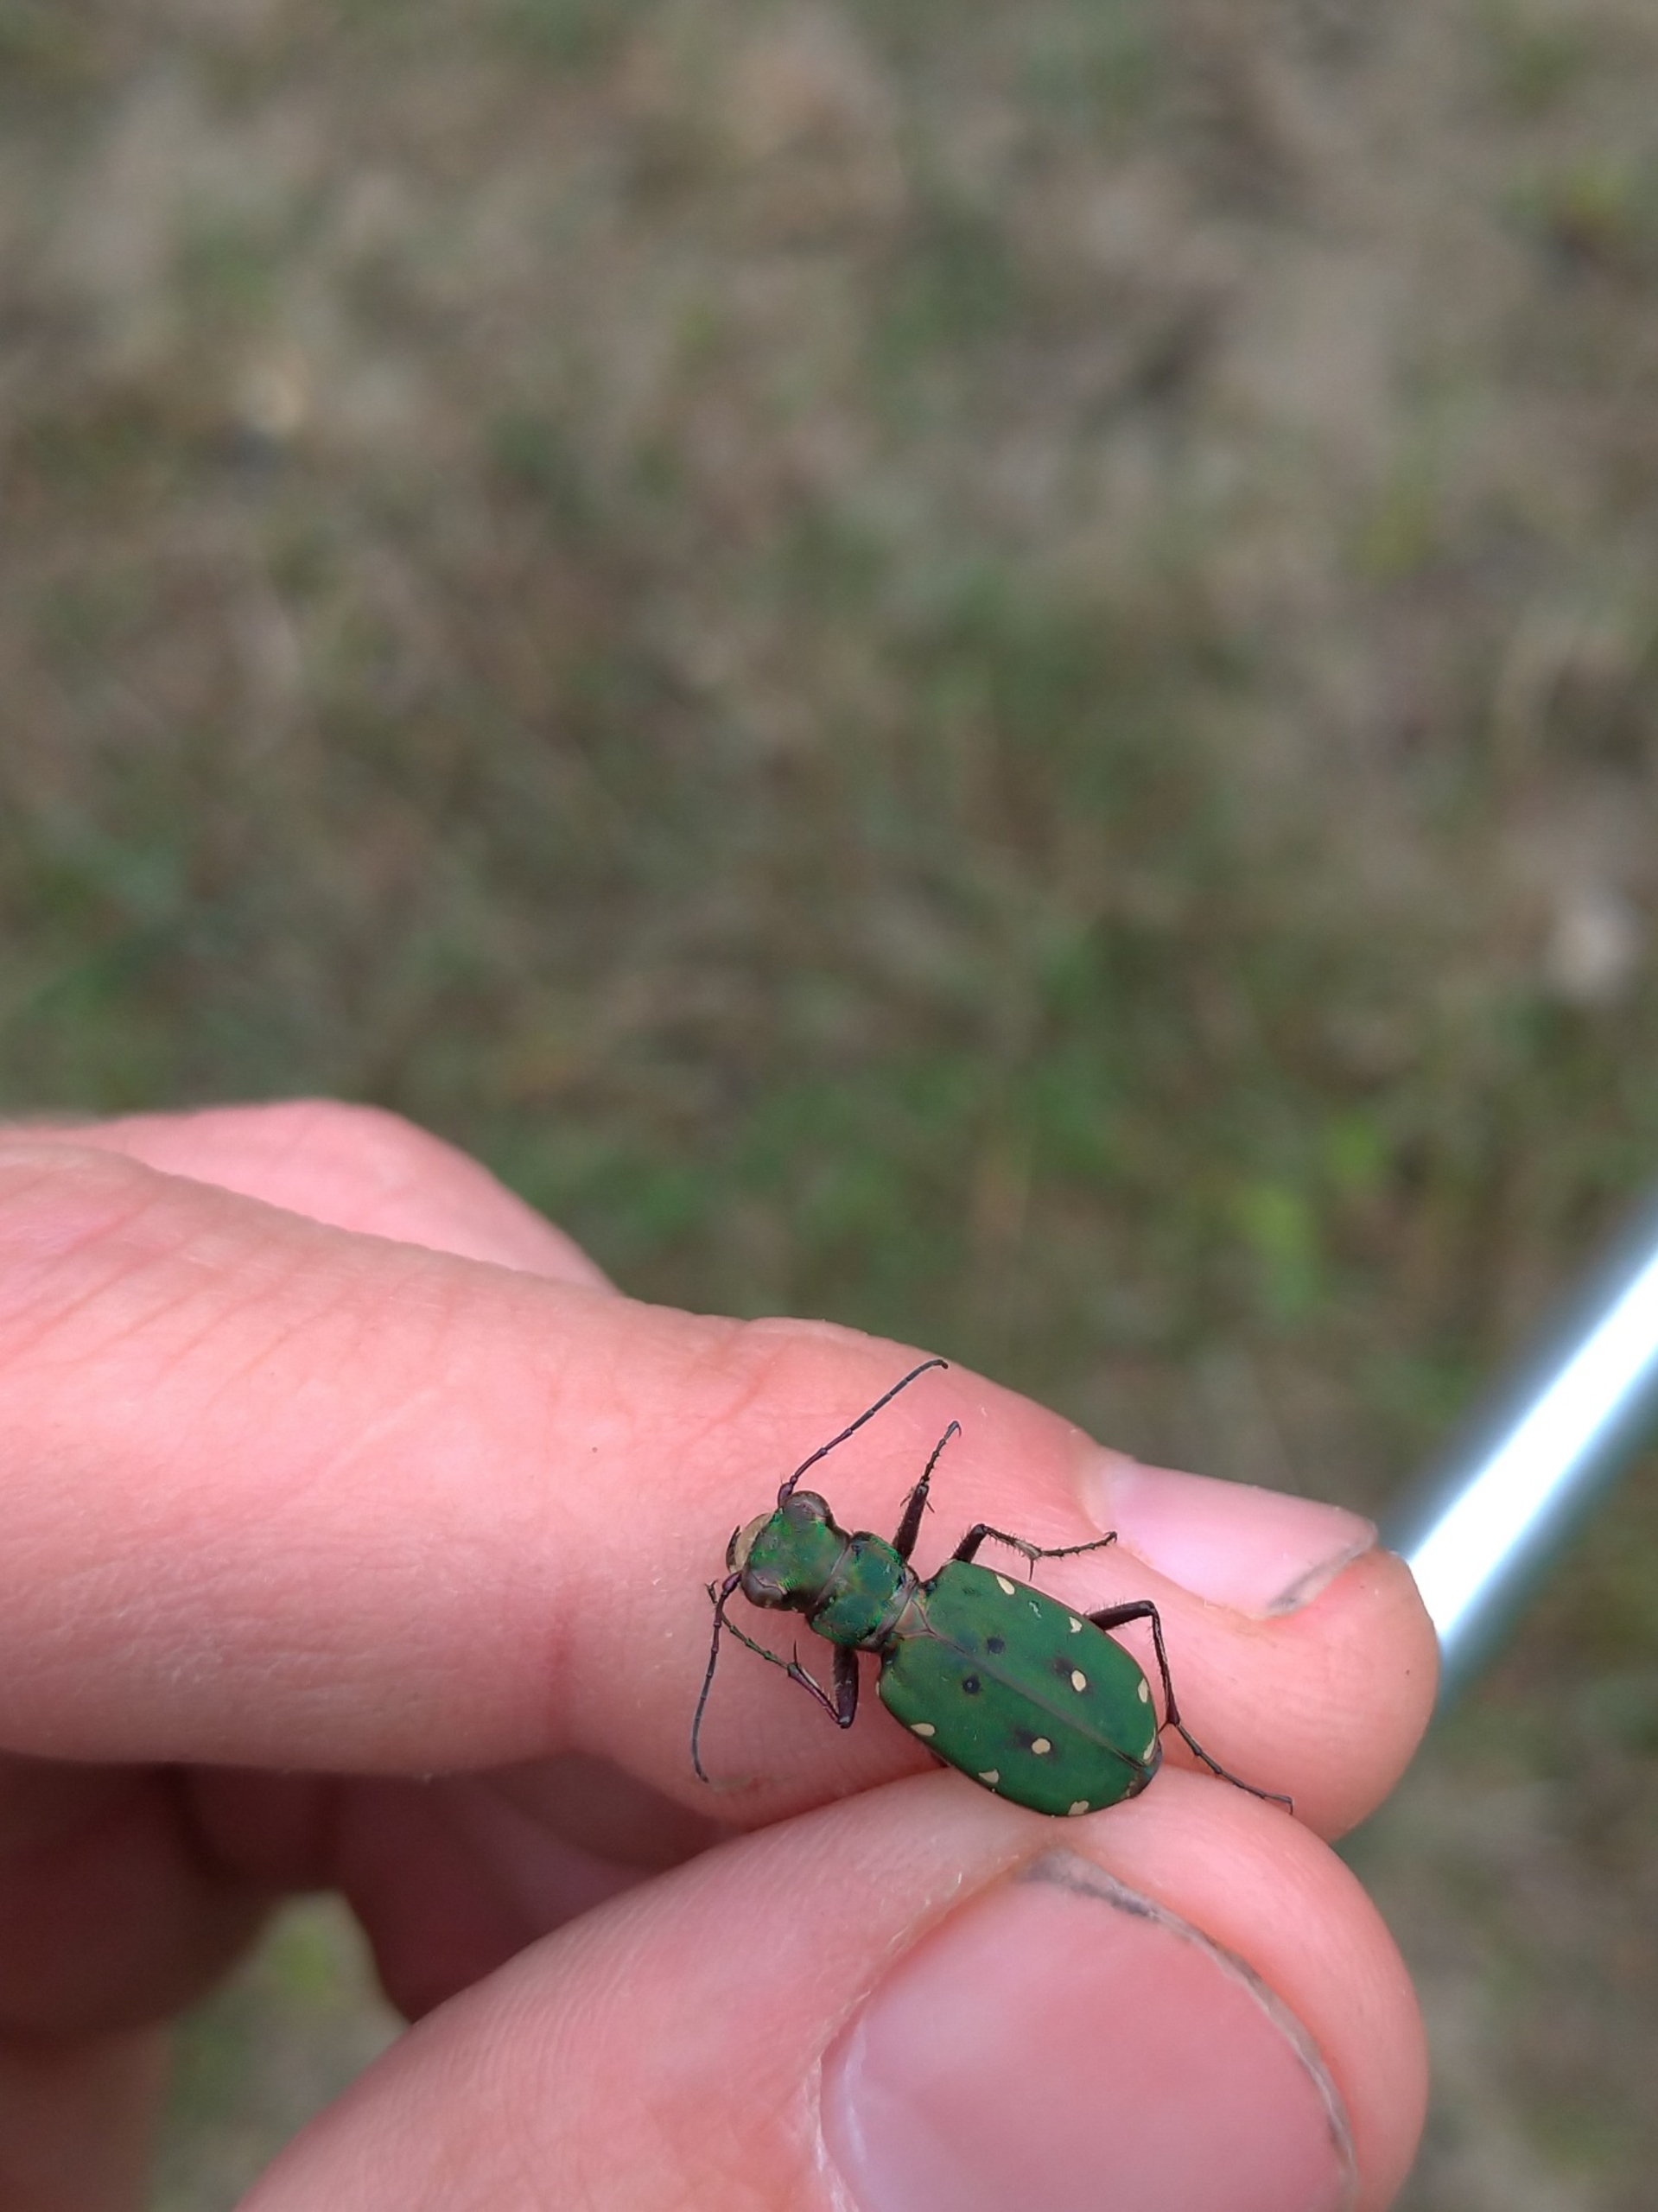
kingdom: Animalia
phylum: Arthropoda
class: Insecta
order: Coleoptera
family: Carabidae
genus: Cicindela
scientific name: Cicindela campestris
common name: Grøn sandspringer
